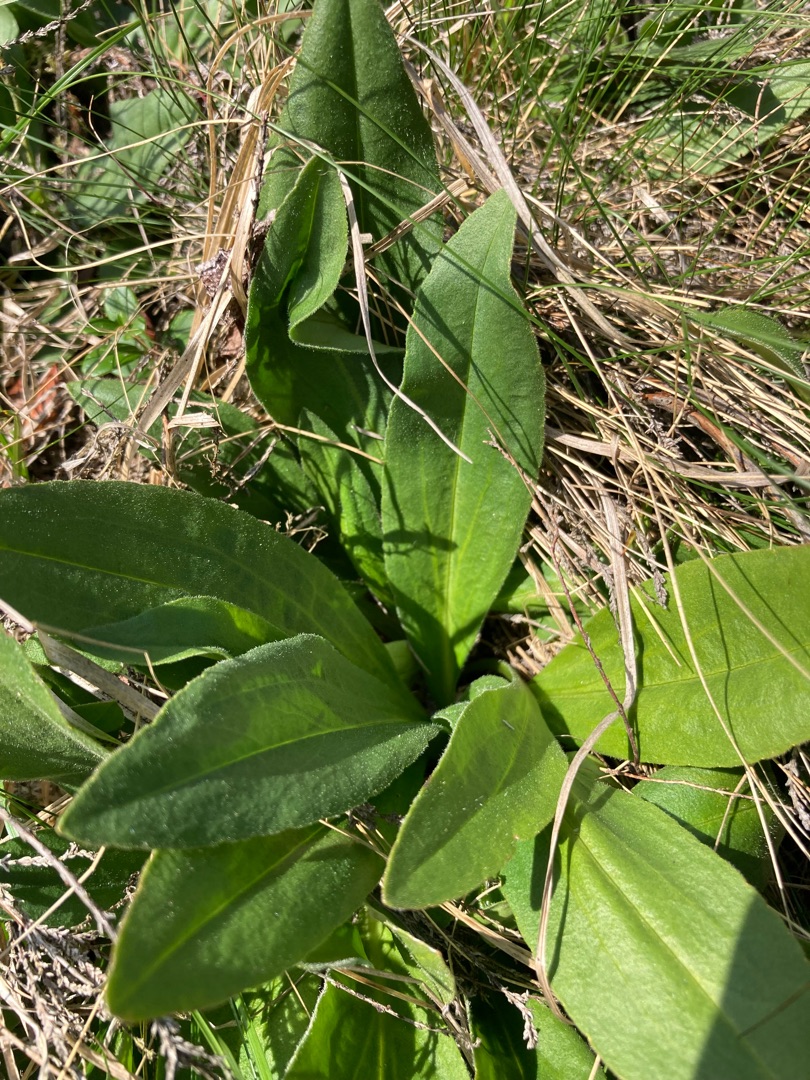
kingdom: Plantae
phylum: Tracheophyta
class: Magnoliopsida
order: Asterales
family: Asteraceae
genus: Arnica
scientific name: Arnica montana
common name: Guldblomme
